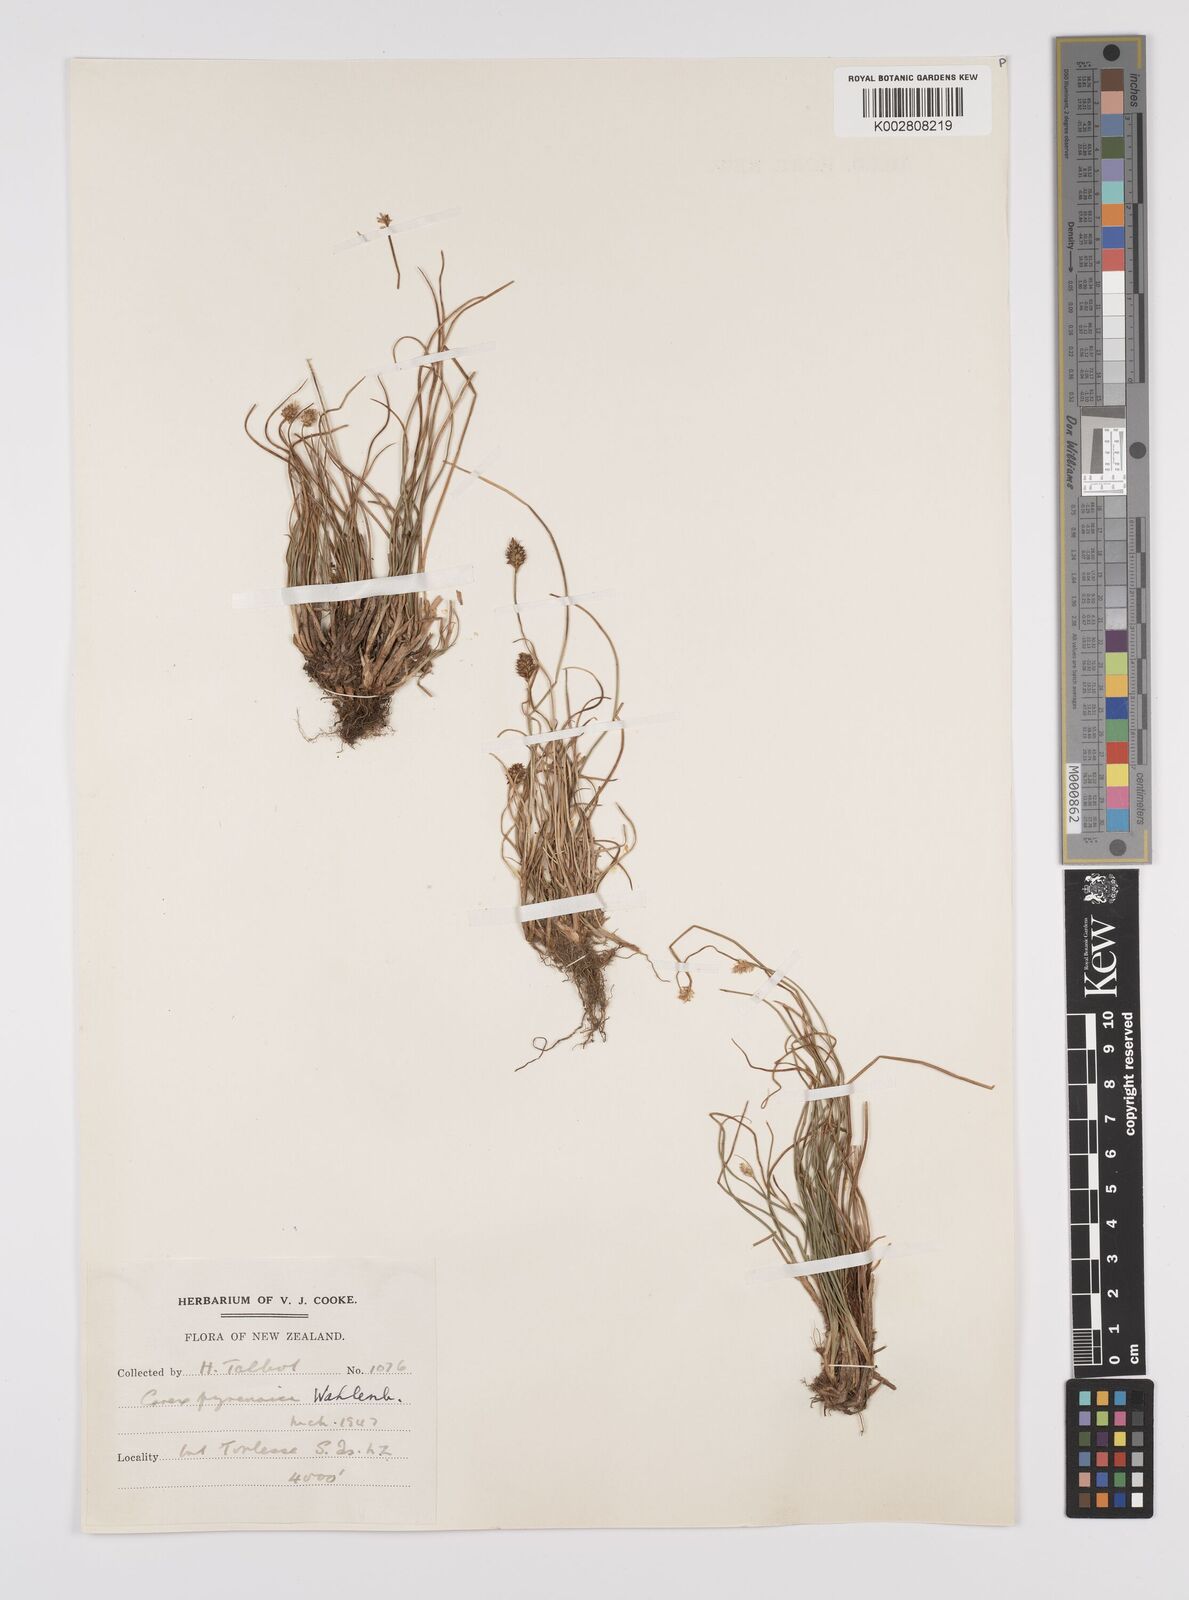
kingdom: Plantae
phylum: Tracheophyta
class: Liliopsida
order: Poales
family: Cyperaceae
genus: Carex
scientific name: Carex pyrenaica
